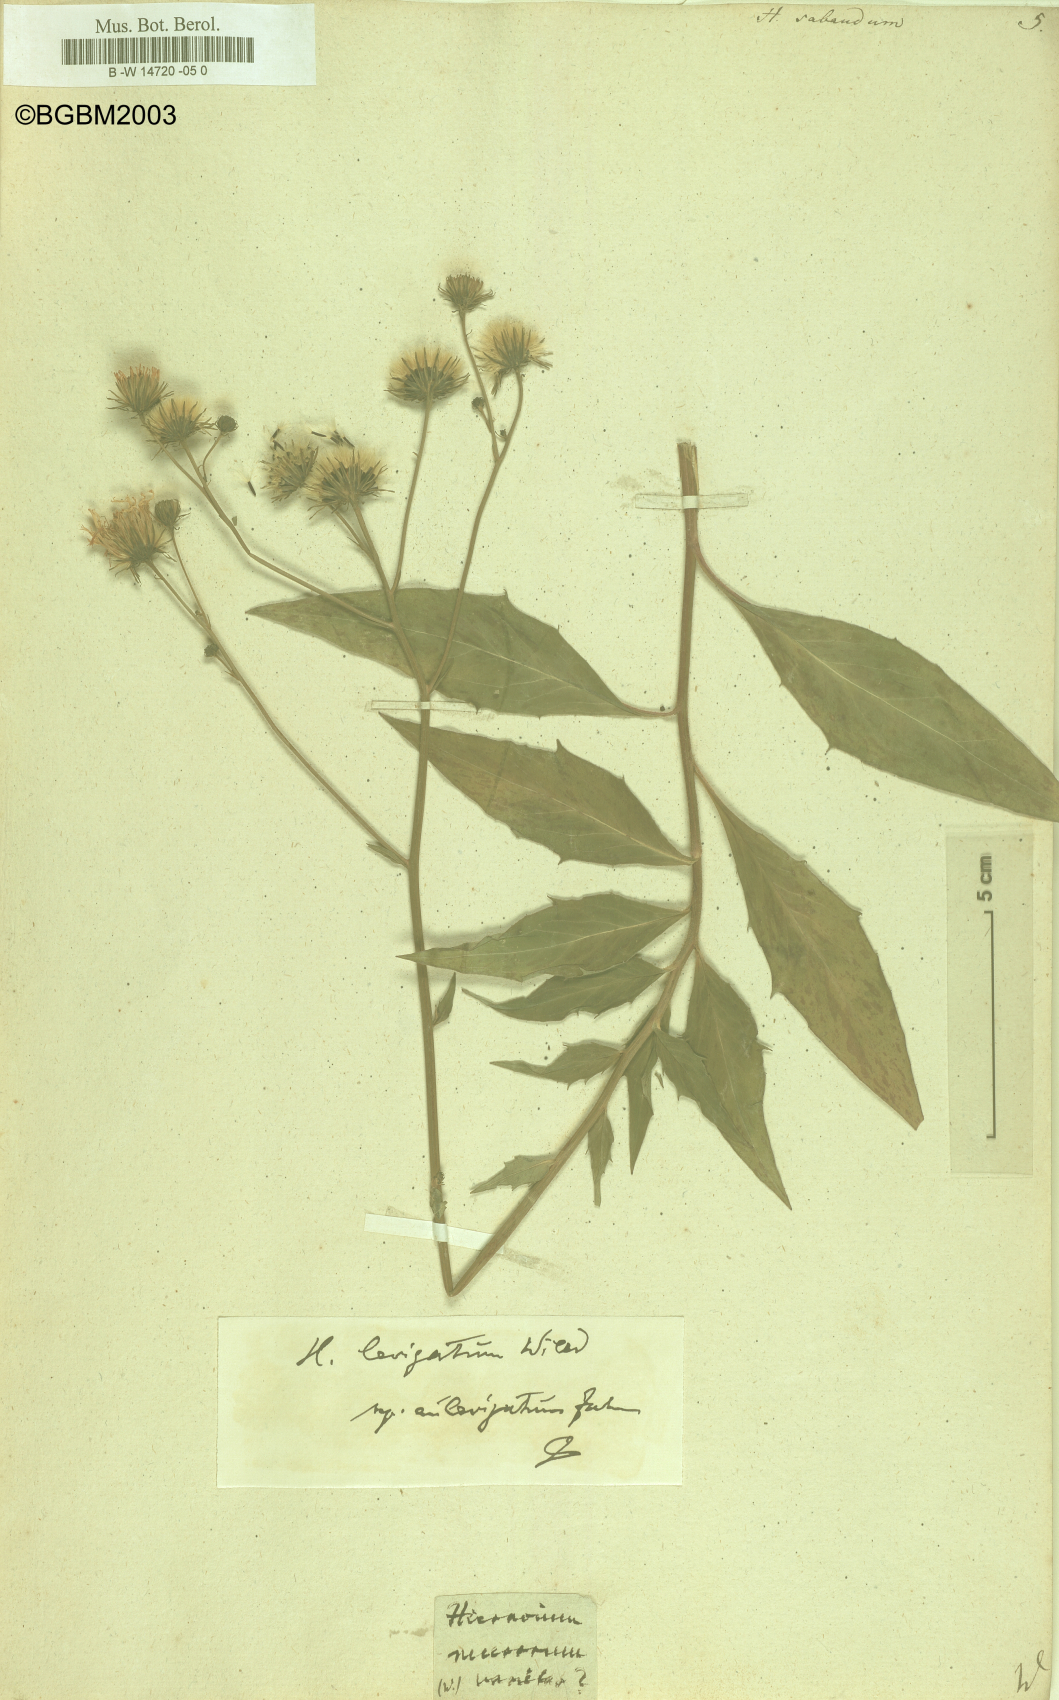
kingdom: Plantae
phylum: Tracheophyta
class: Magnoliopsida
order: Asterales
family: Asteraceae
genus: Hieracium
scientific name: Hieracium sabaudum
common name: New england hawkweed
